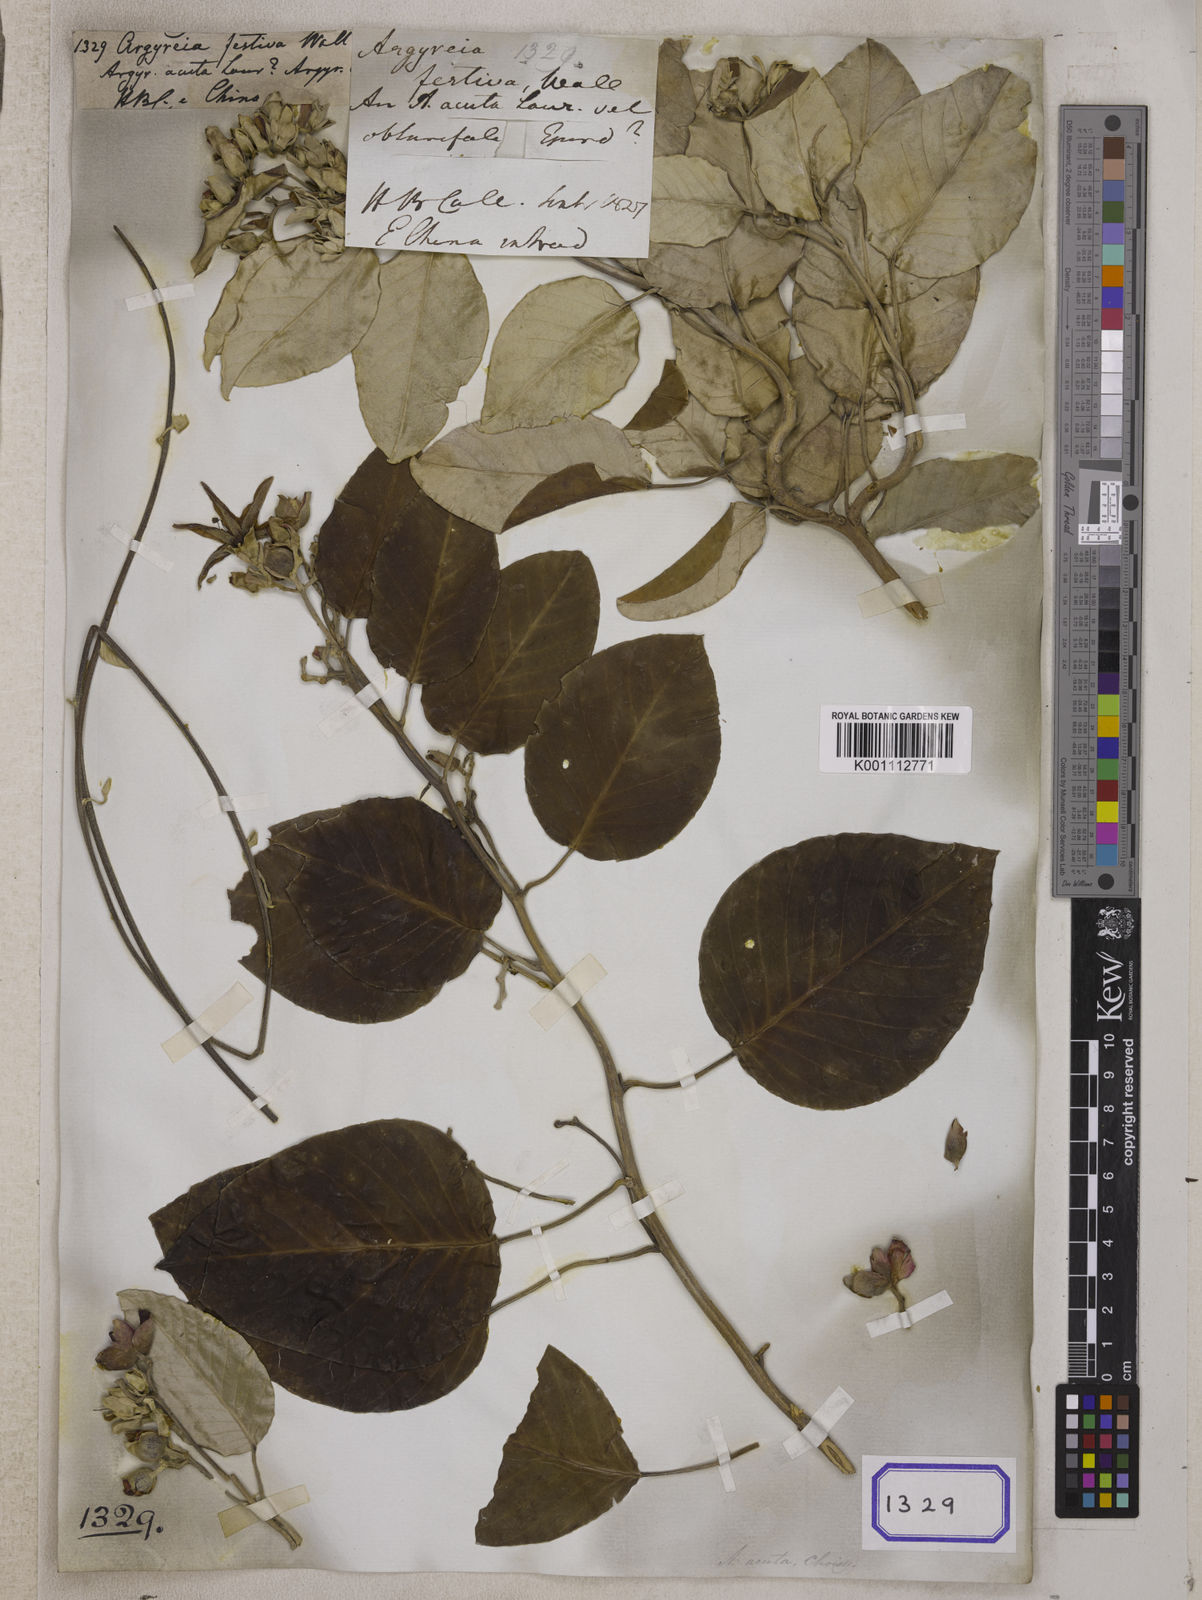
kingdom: Plantae
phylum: Tracheophyta
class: Magnoliopsida
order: Solanales
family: Convolvulaceae
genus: Argyreia
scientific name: Argyreia obtusifolia
